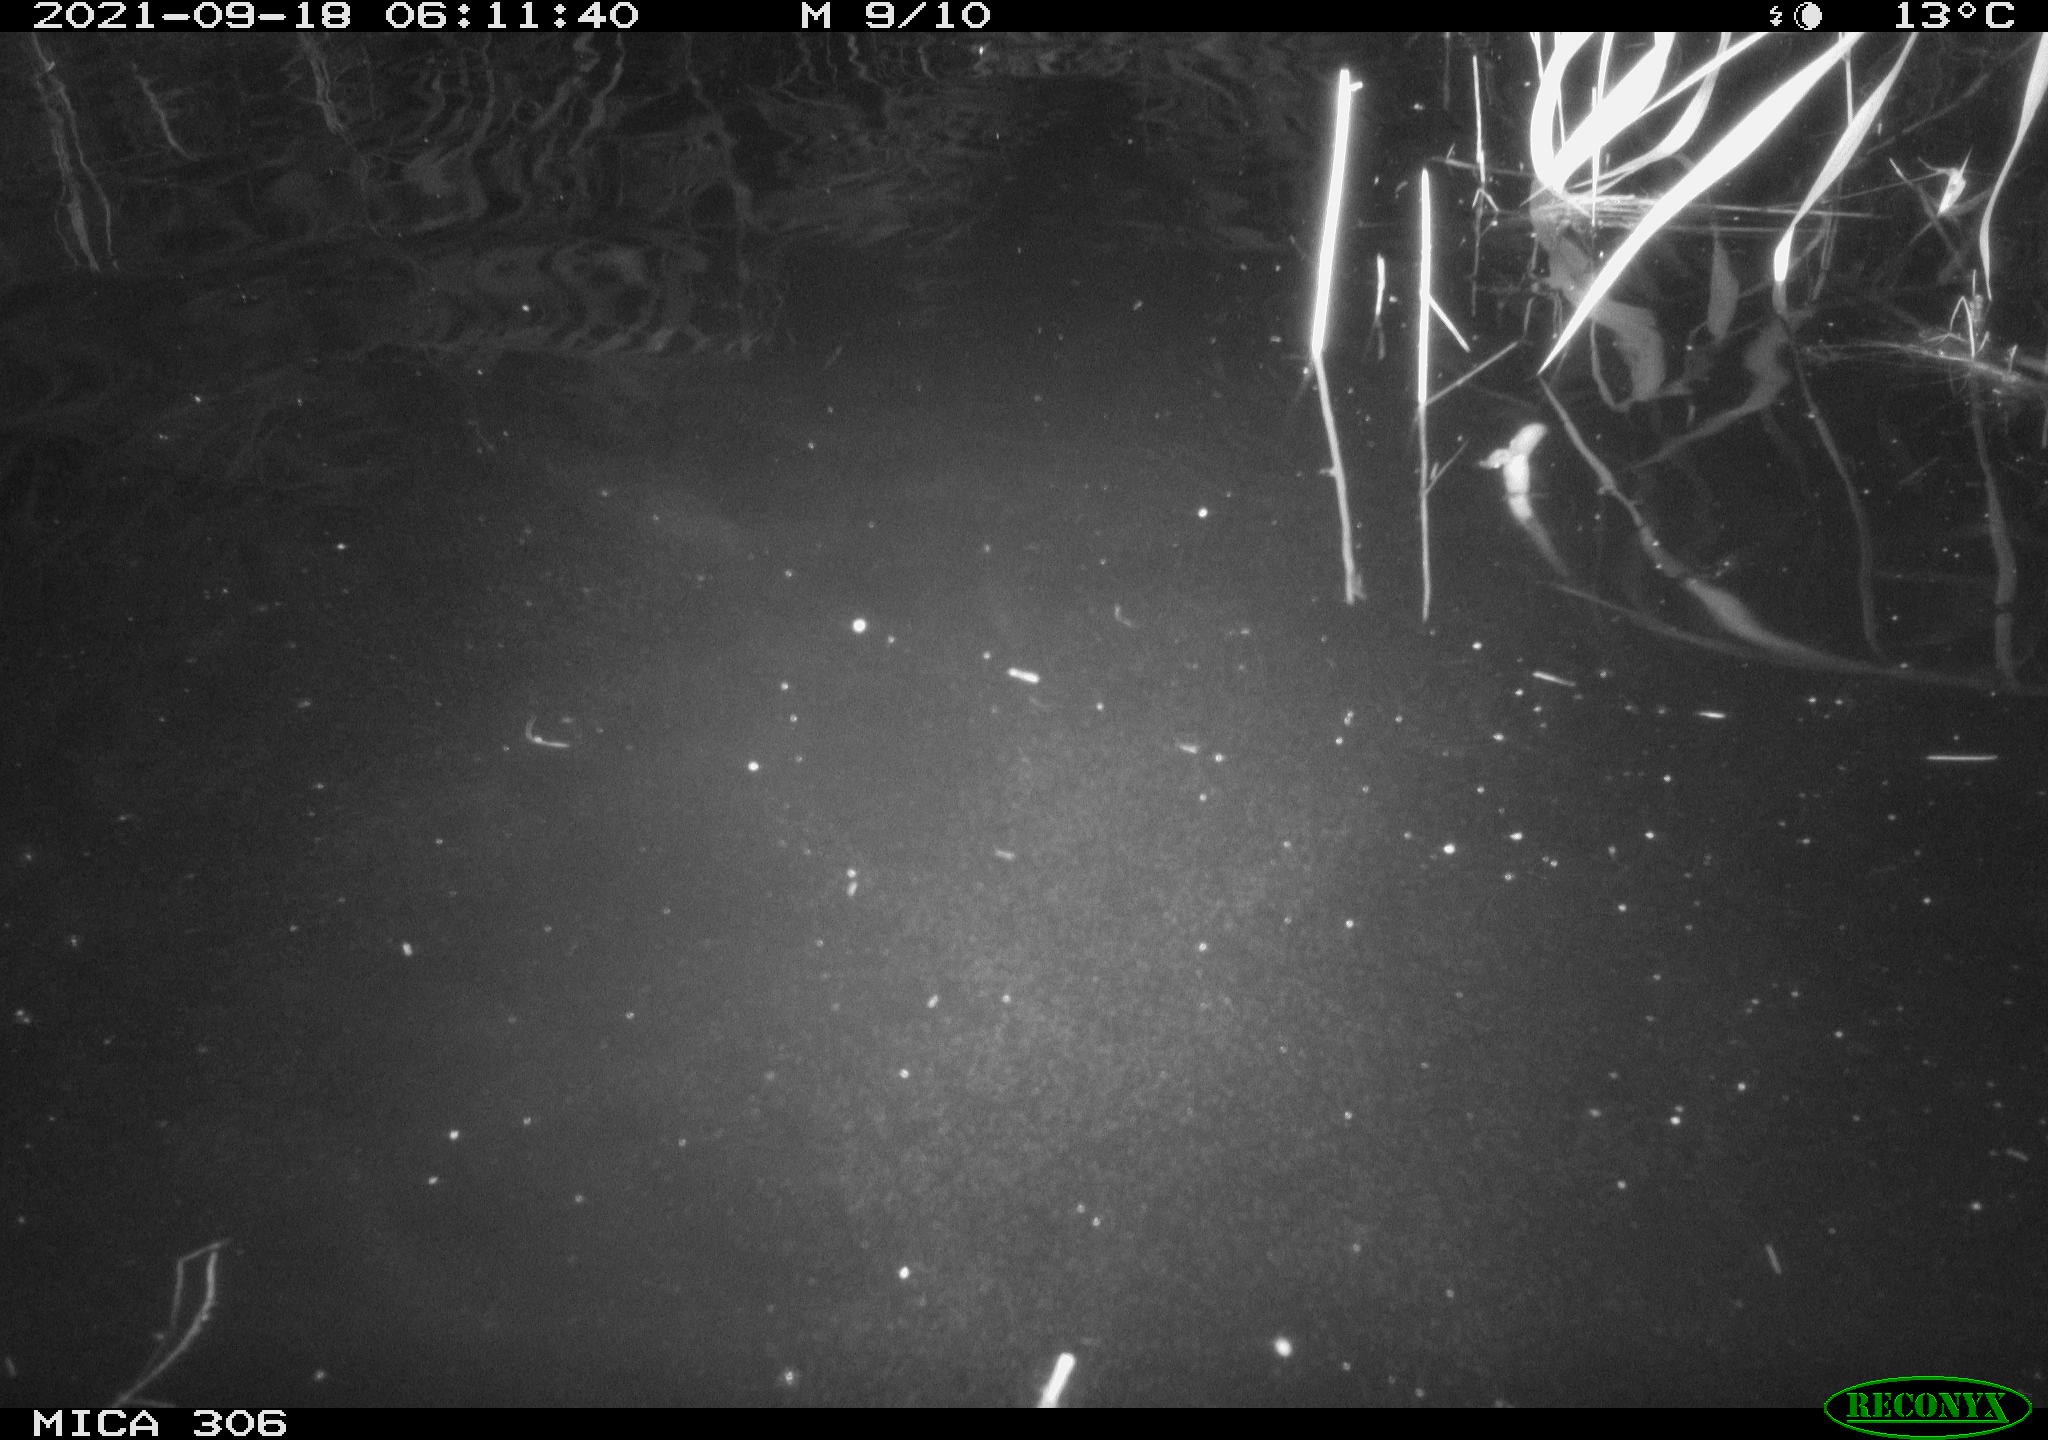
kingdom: Animalia
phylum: Chordata
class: Mammalia
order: Rodentia
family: Cricetidae
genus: Ondatra
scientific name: Ondatra zibethicus
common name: Muskrat
